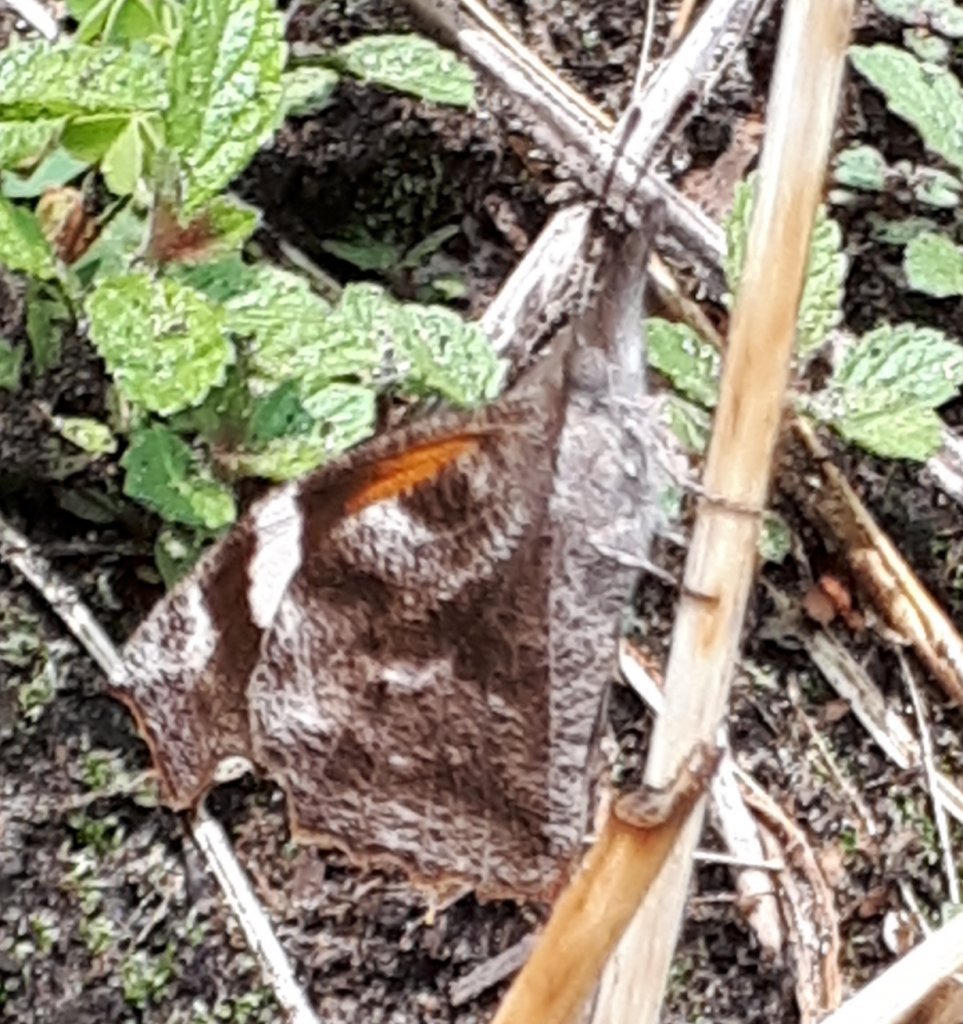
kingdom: Animalia
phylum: Arthropoda
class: Insecta
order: Lepidoptera
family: Nymphalidae
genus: Libytheana
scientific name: Libytheana carinenta
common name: American Snout
